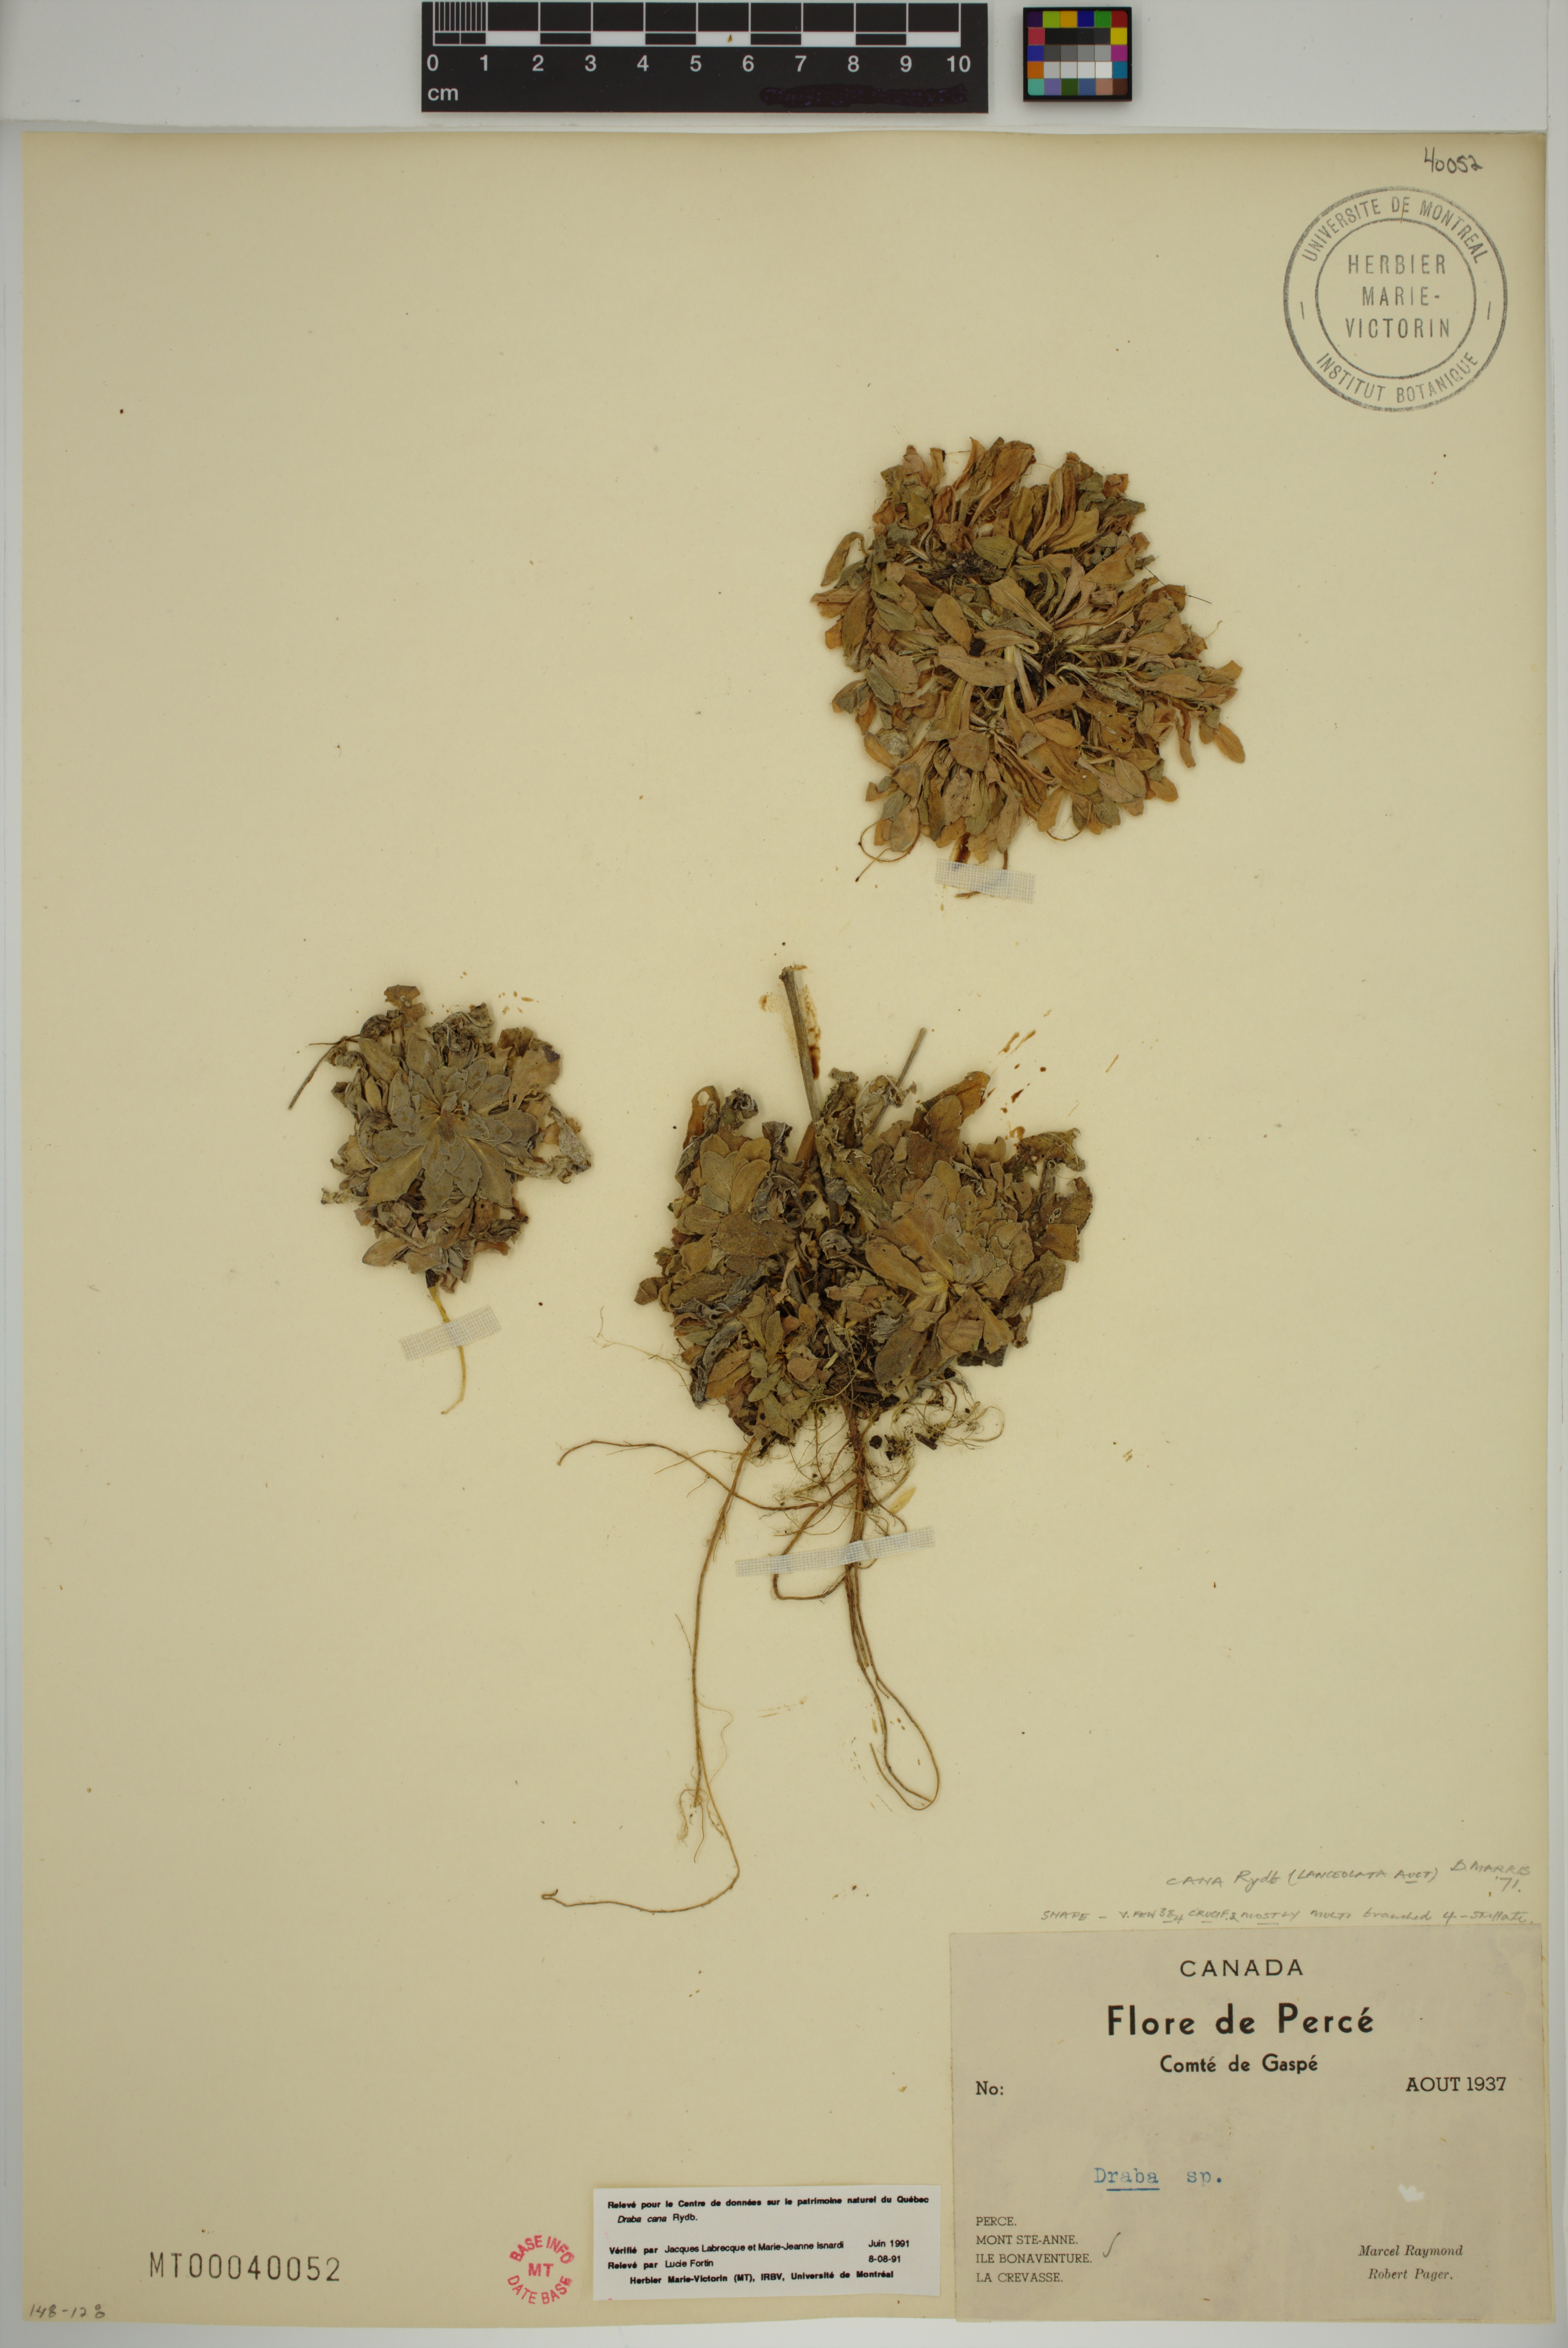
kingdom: Plantae
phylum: Tracheophyta
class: Magnoliopsida
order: Brassicales
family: Brassicaceae
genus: Draba
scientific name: Draba cana
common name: Hoary draba
